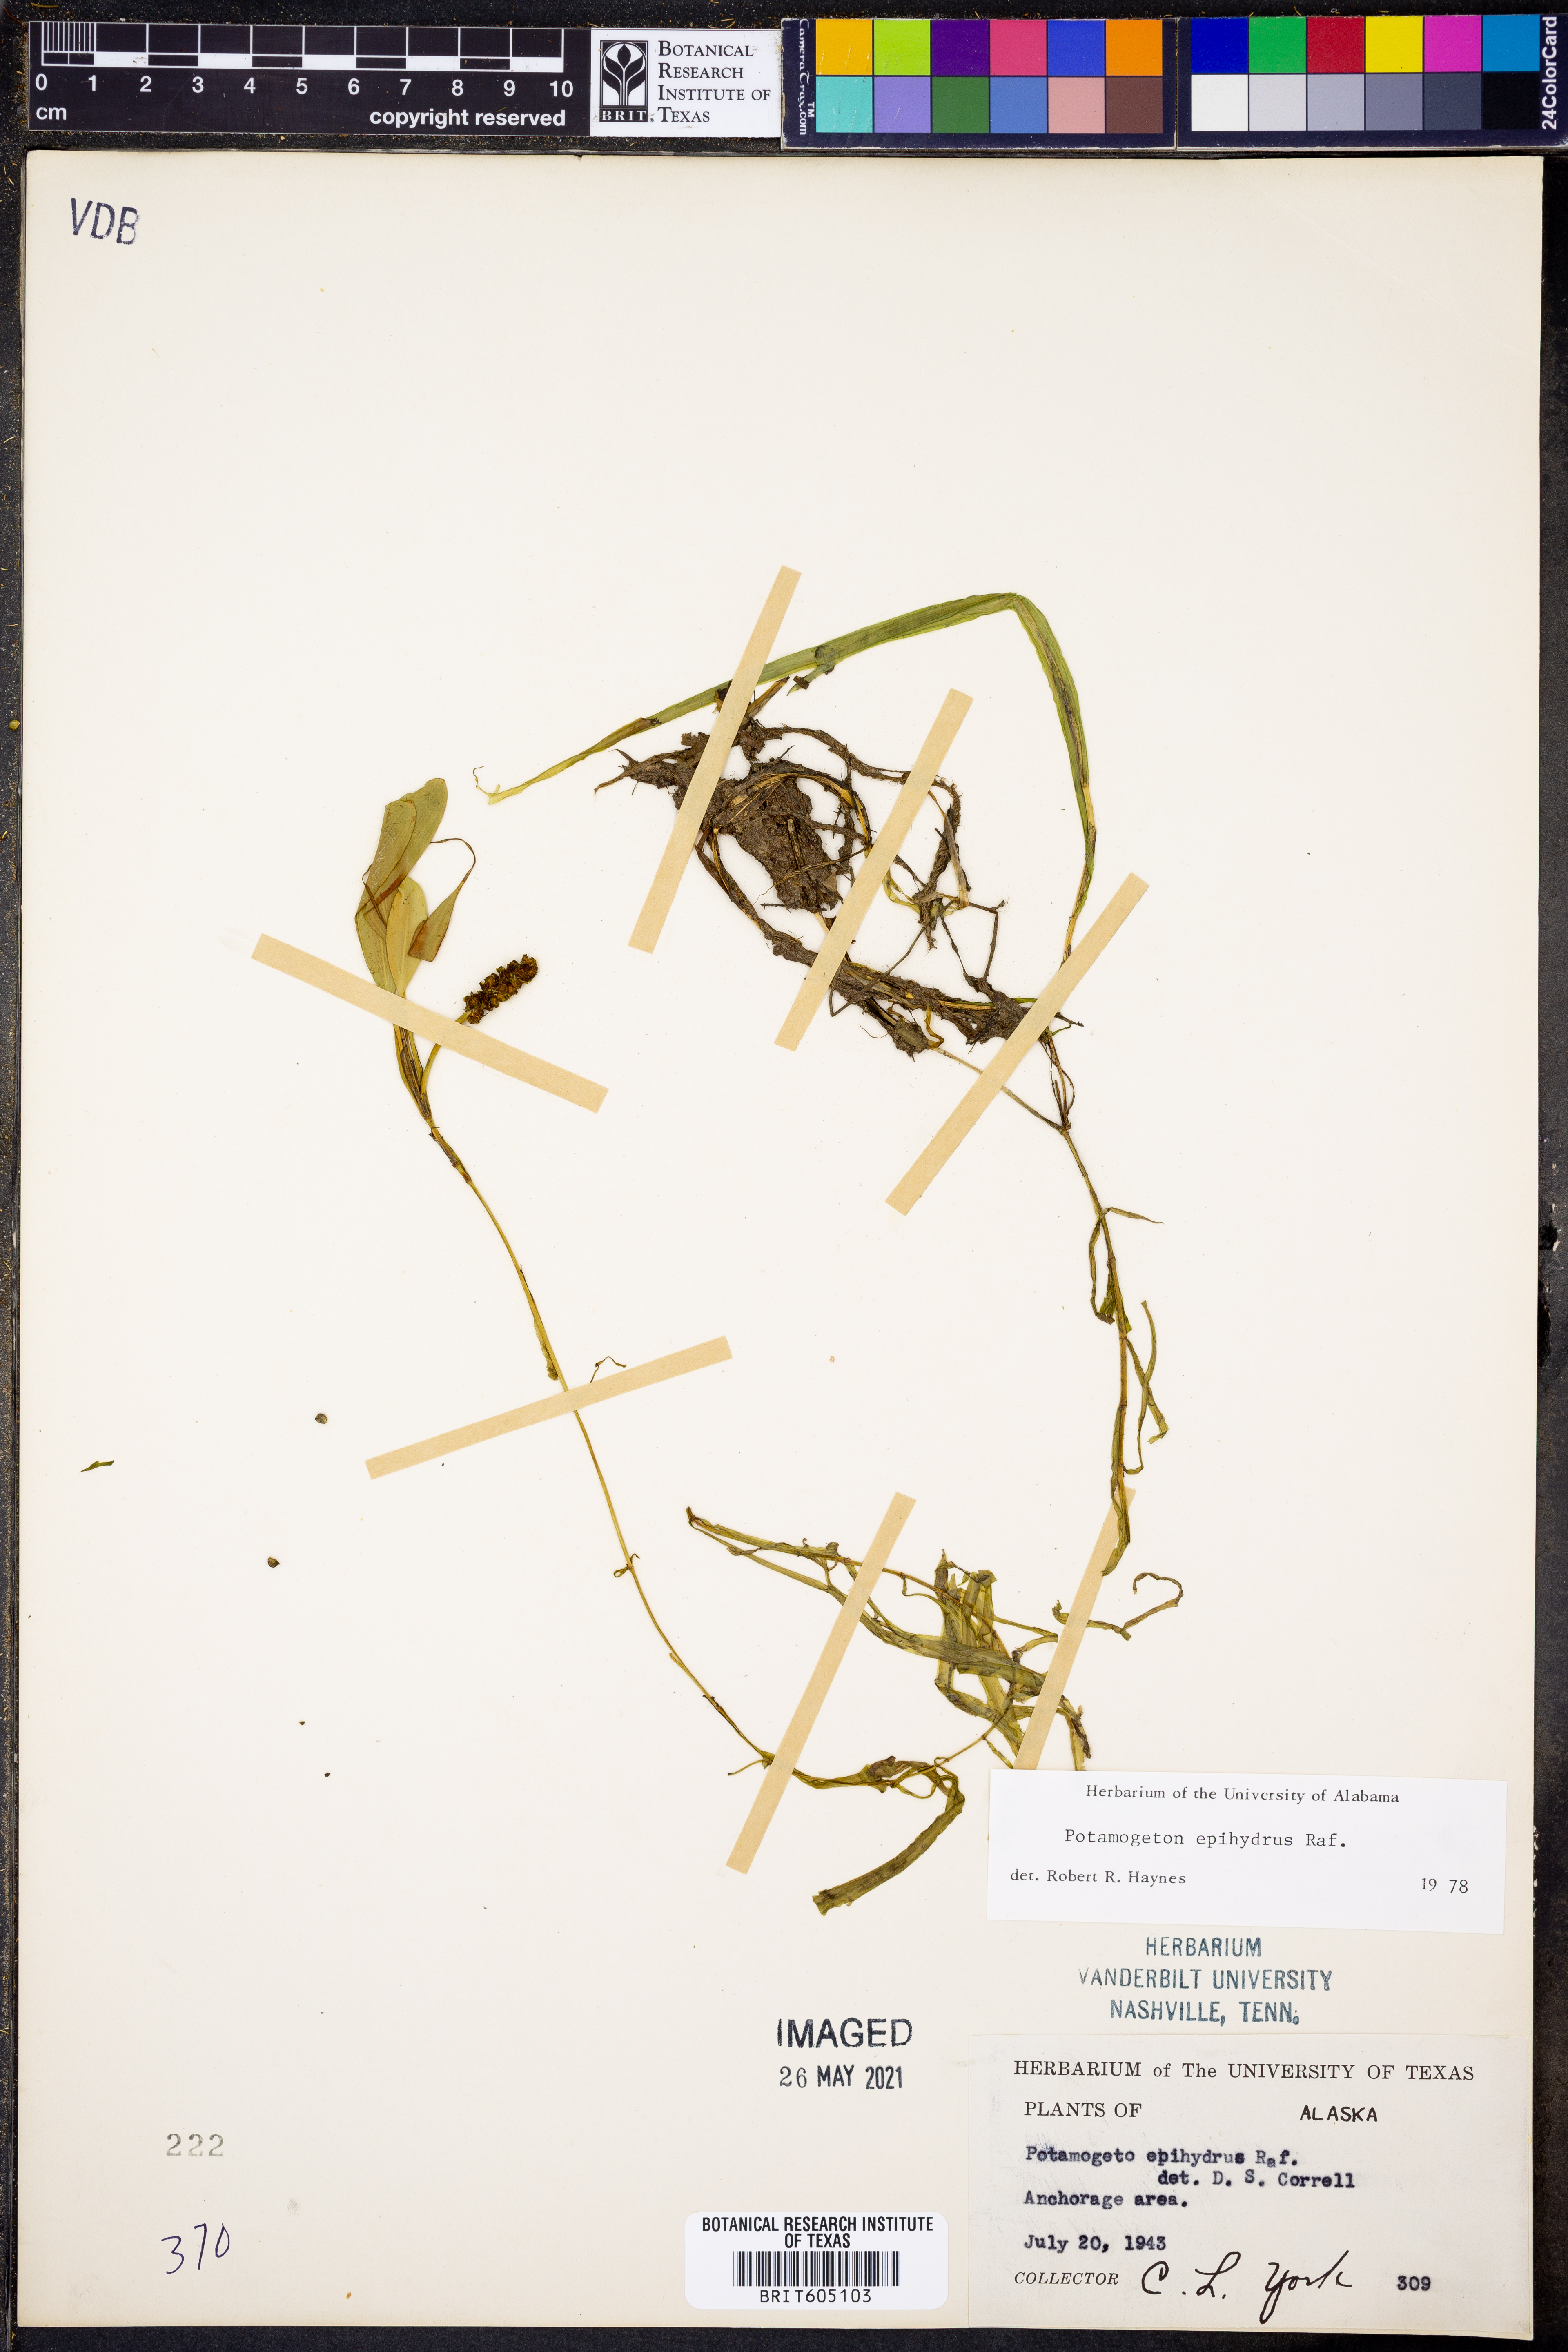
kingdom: Plantae
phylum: Tracheophyta
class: Liliopsida
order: Alismatales
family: Potamogetonaceae
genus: Potamogeton
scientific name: Potamogeton epihydrus
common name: American pondweed
